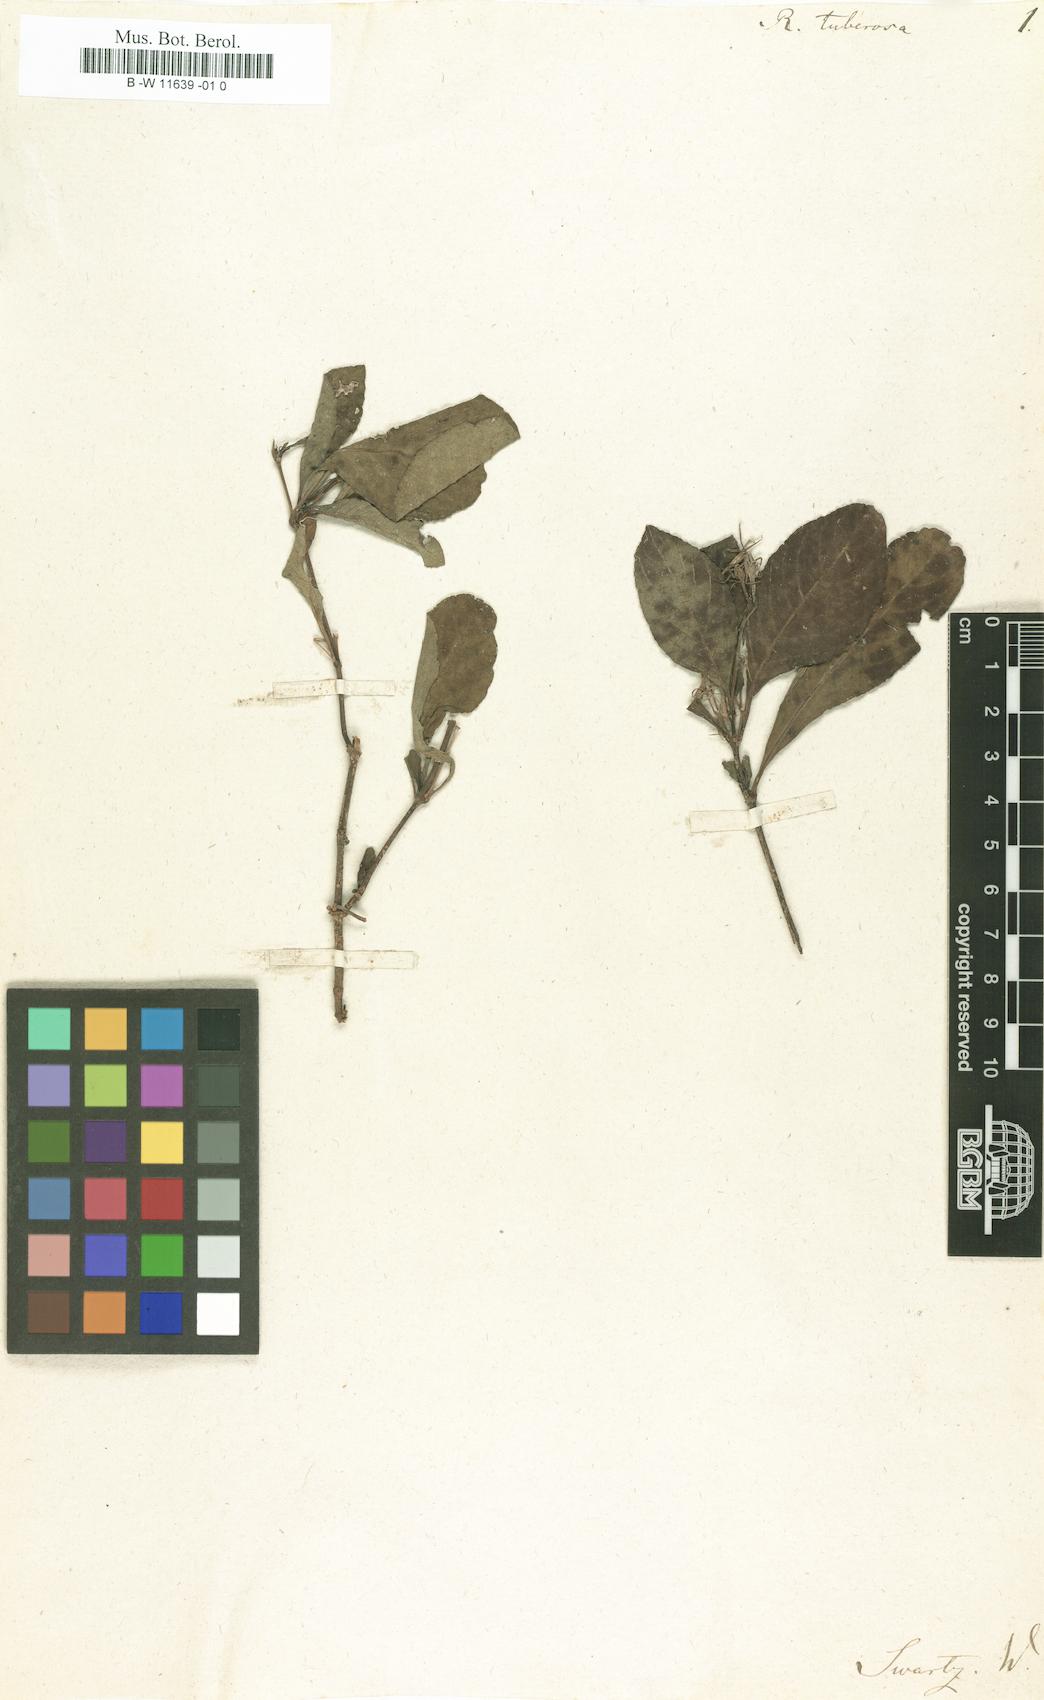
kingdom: Plantae
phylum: Tracheophyta
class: Magnoliopsida
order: Lamiales
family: Acanthaceae
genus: Ruellia
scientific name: Ruellia tuberosa
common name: Devil's bit
